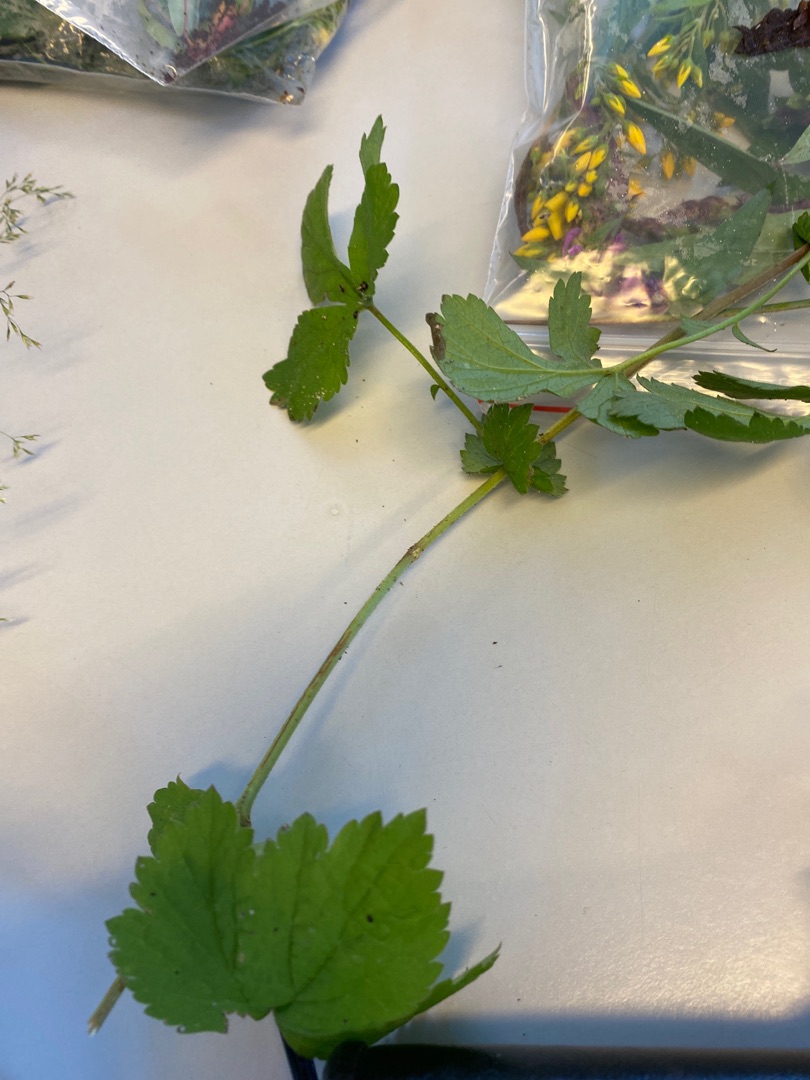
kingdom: Plantae
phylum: Tracheophyta
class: Magnoliopsida
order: Rosales
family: Rosaceae
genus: Geum
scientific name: Geum urbanum
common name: Feber-nellikerod
